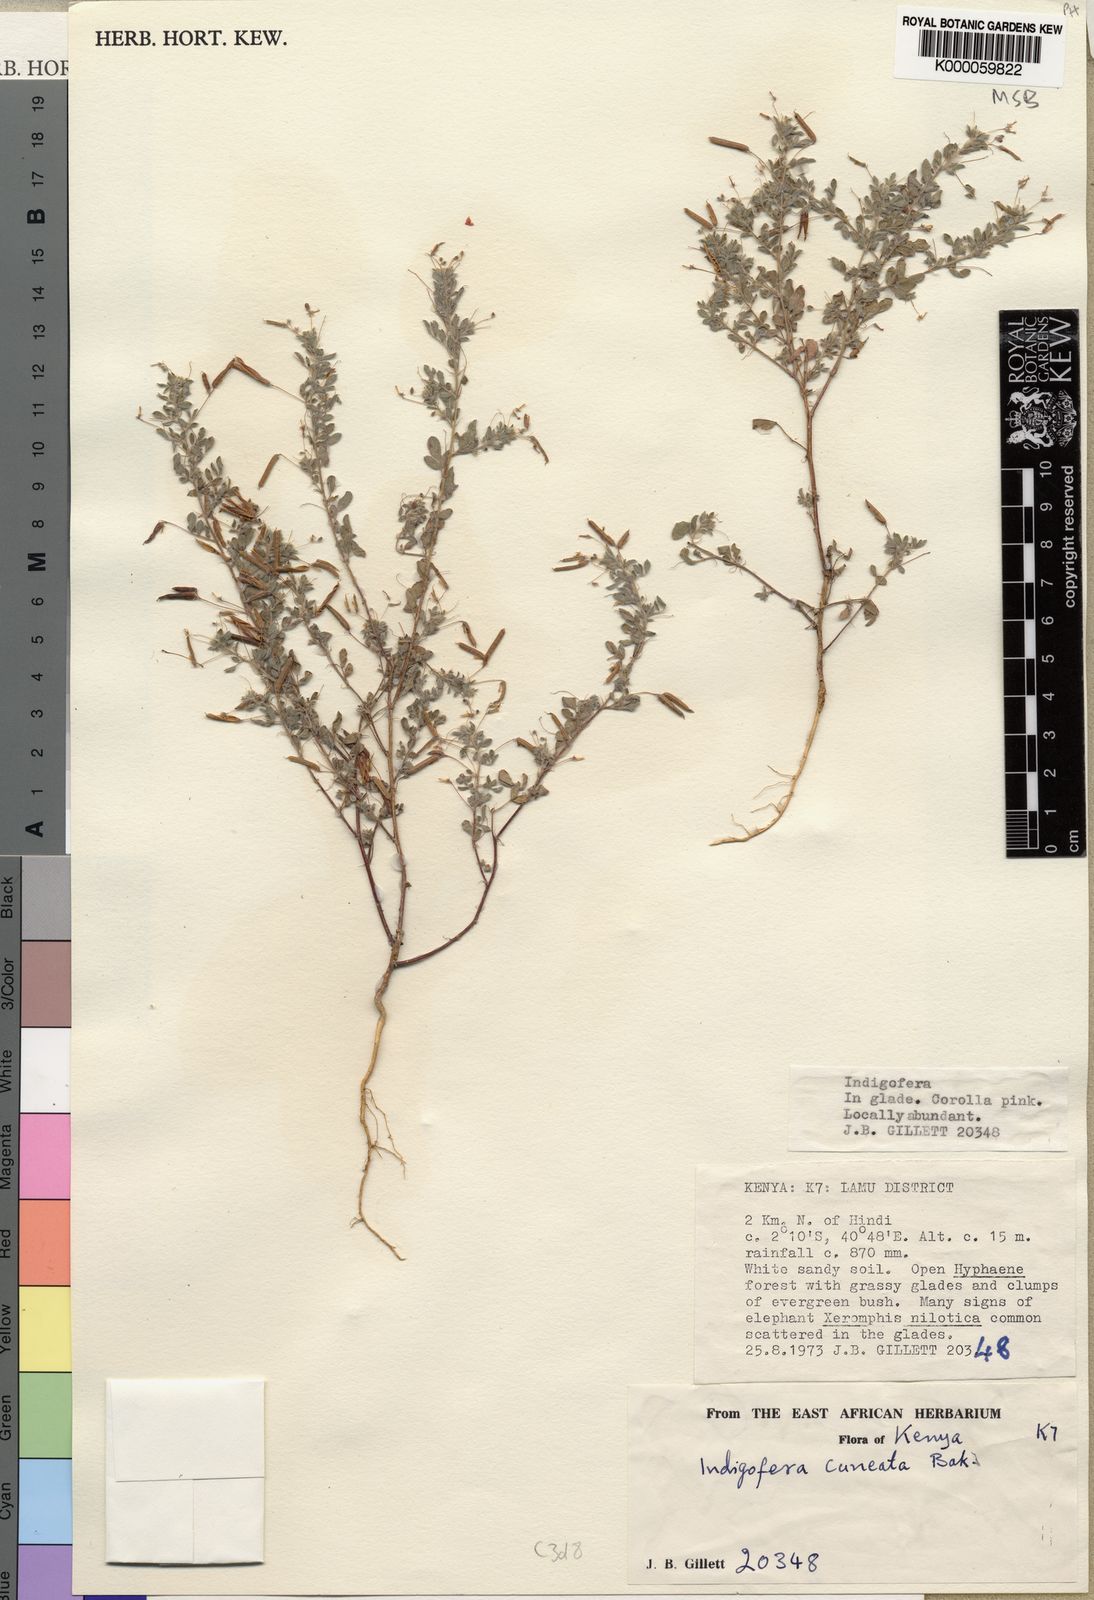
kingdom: Plantae
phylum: Tracheophyta
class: Magnoliopsida
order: Fabales
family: Fabaceae
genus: Indigofera
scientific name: Indigofera cuneata
